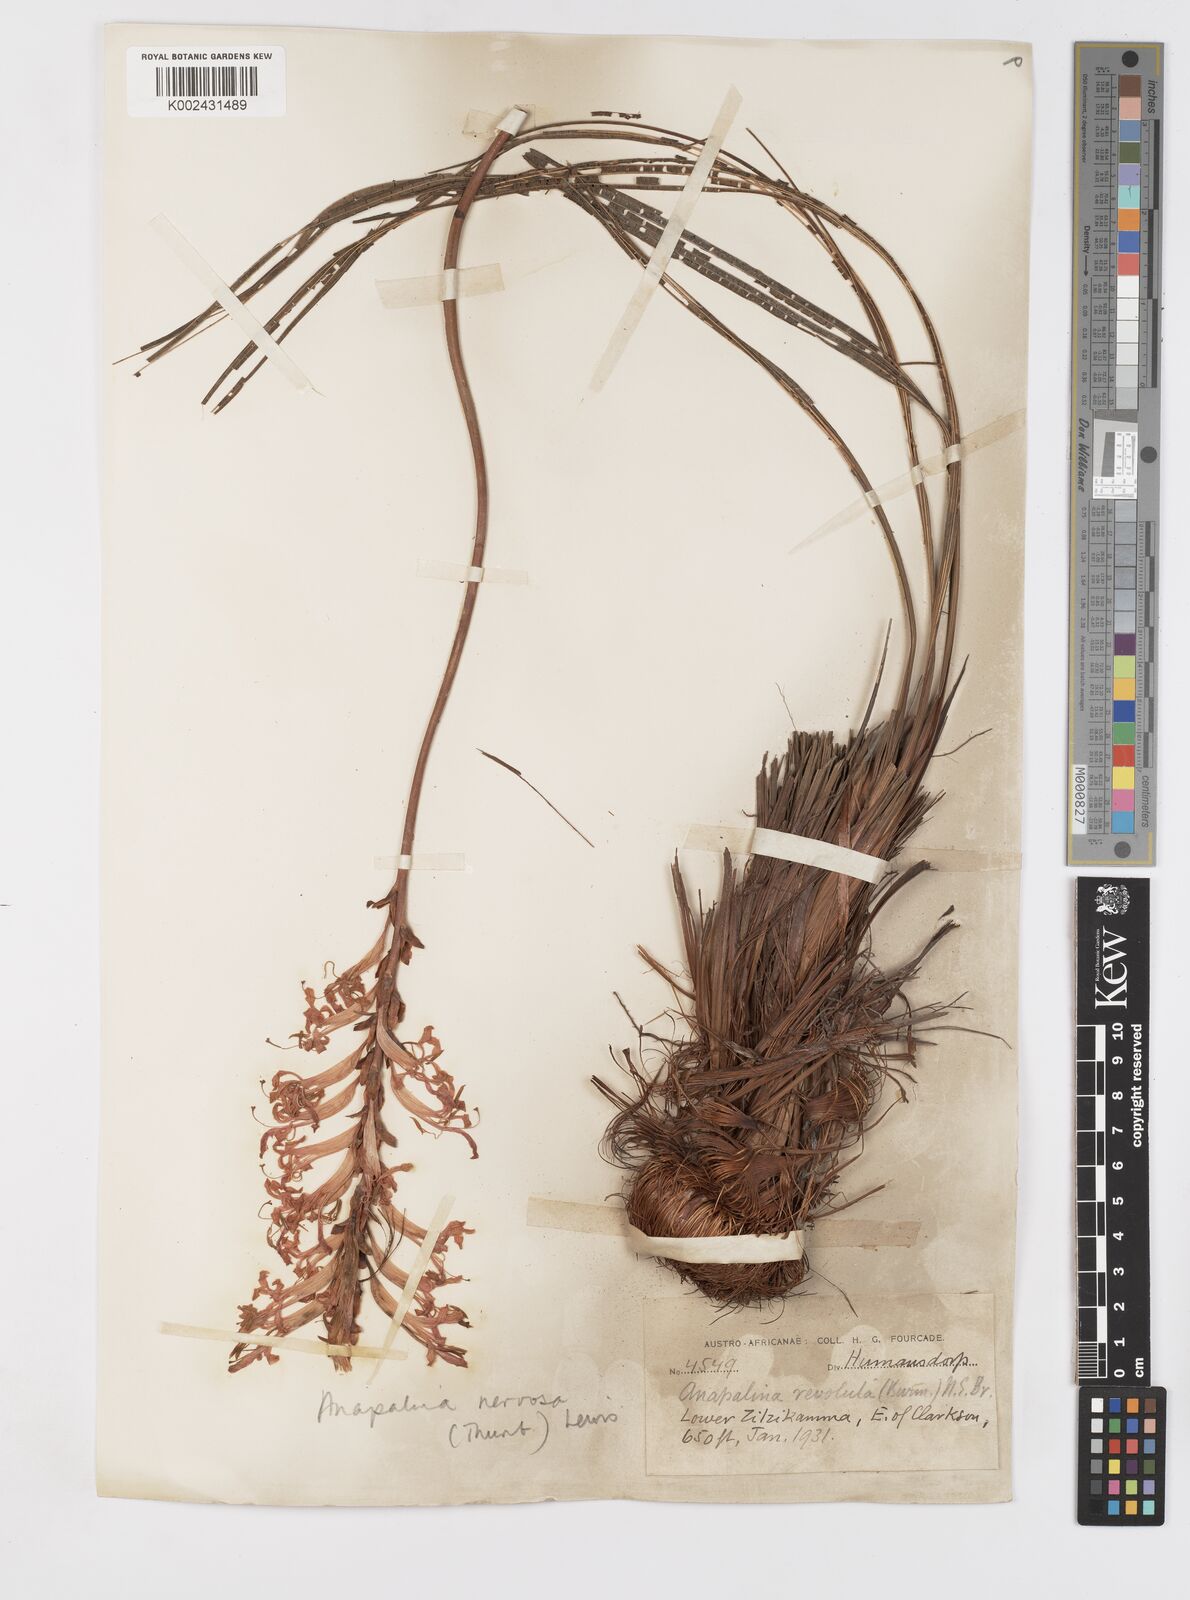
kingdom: Plantae
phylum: Tracheophyta
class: Liliopsida
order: Asparagales
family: Iridaceae
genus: Tritoniopsis
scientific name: Tritoniopsis nervosa
